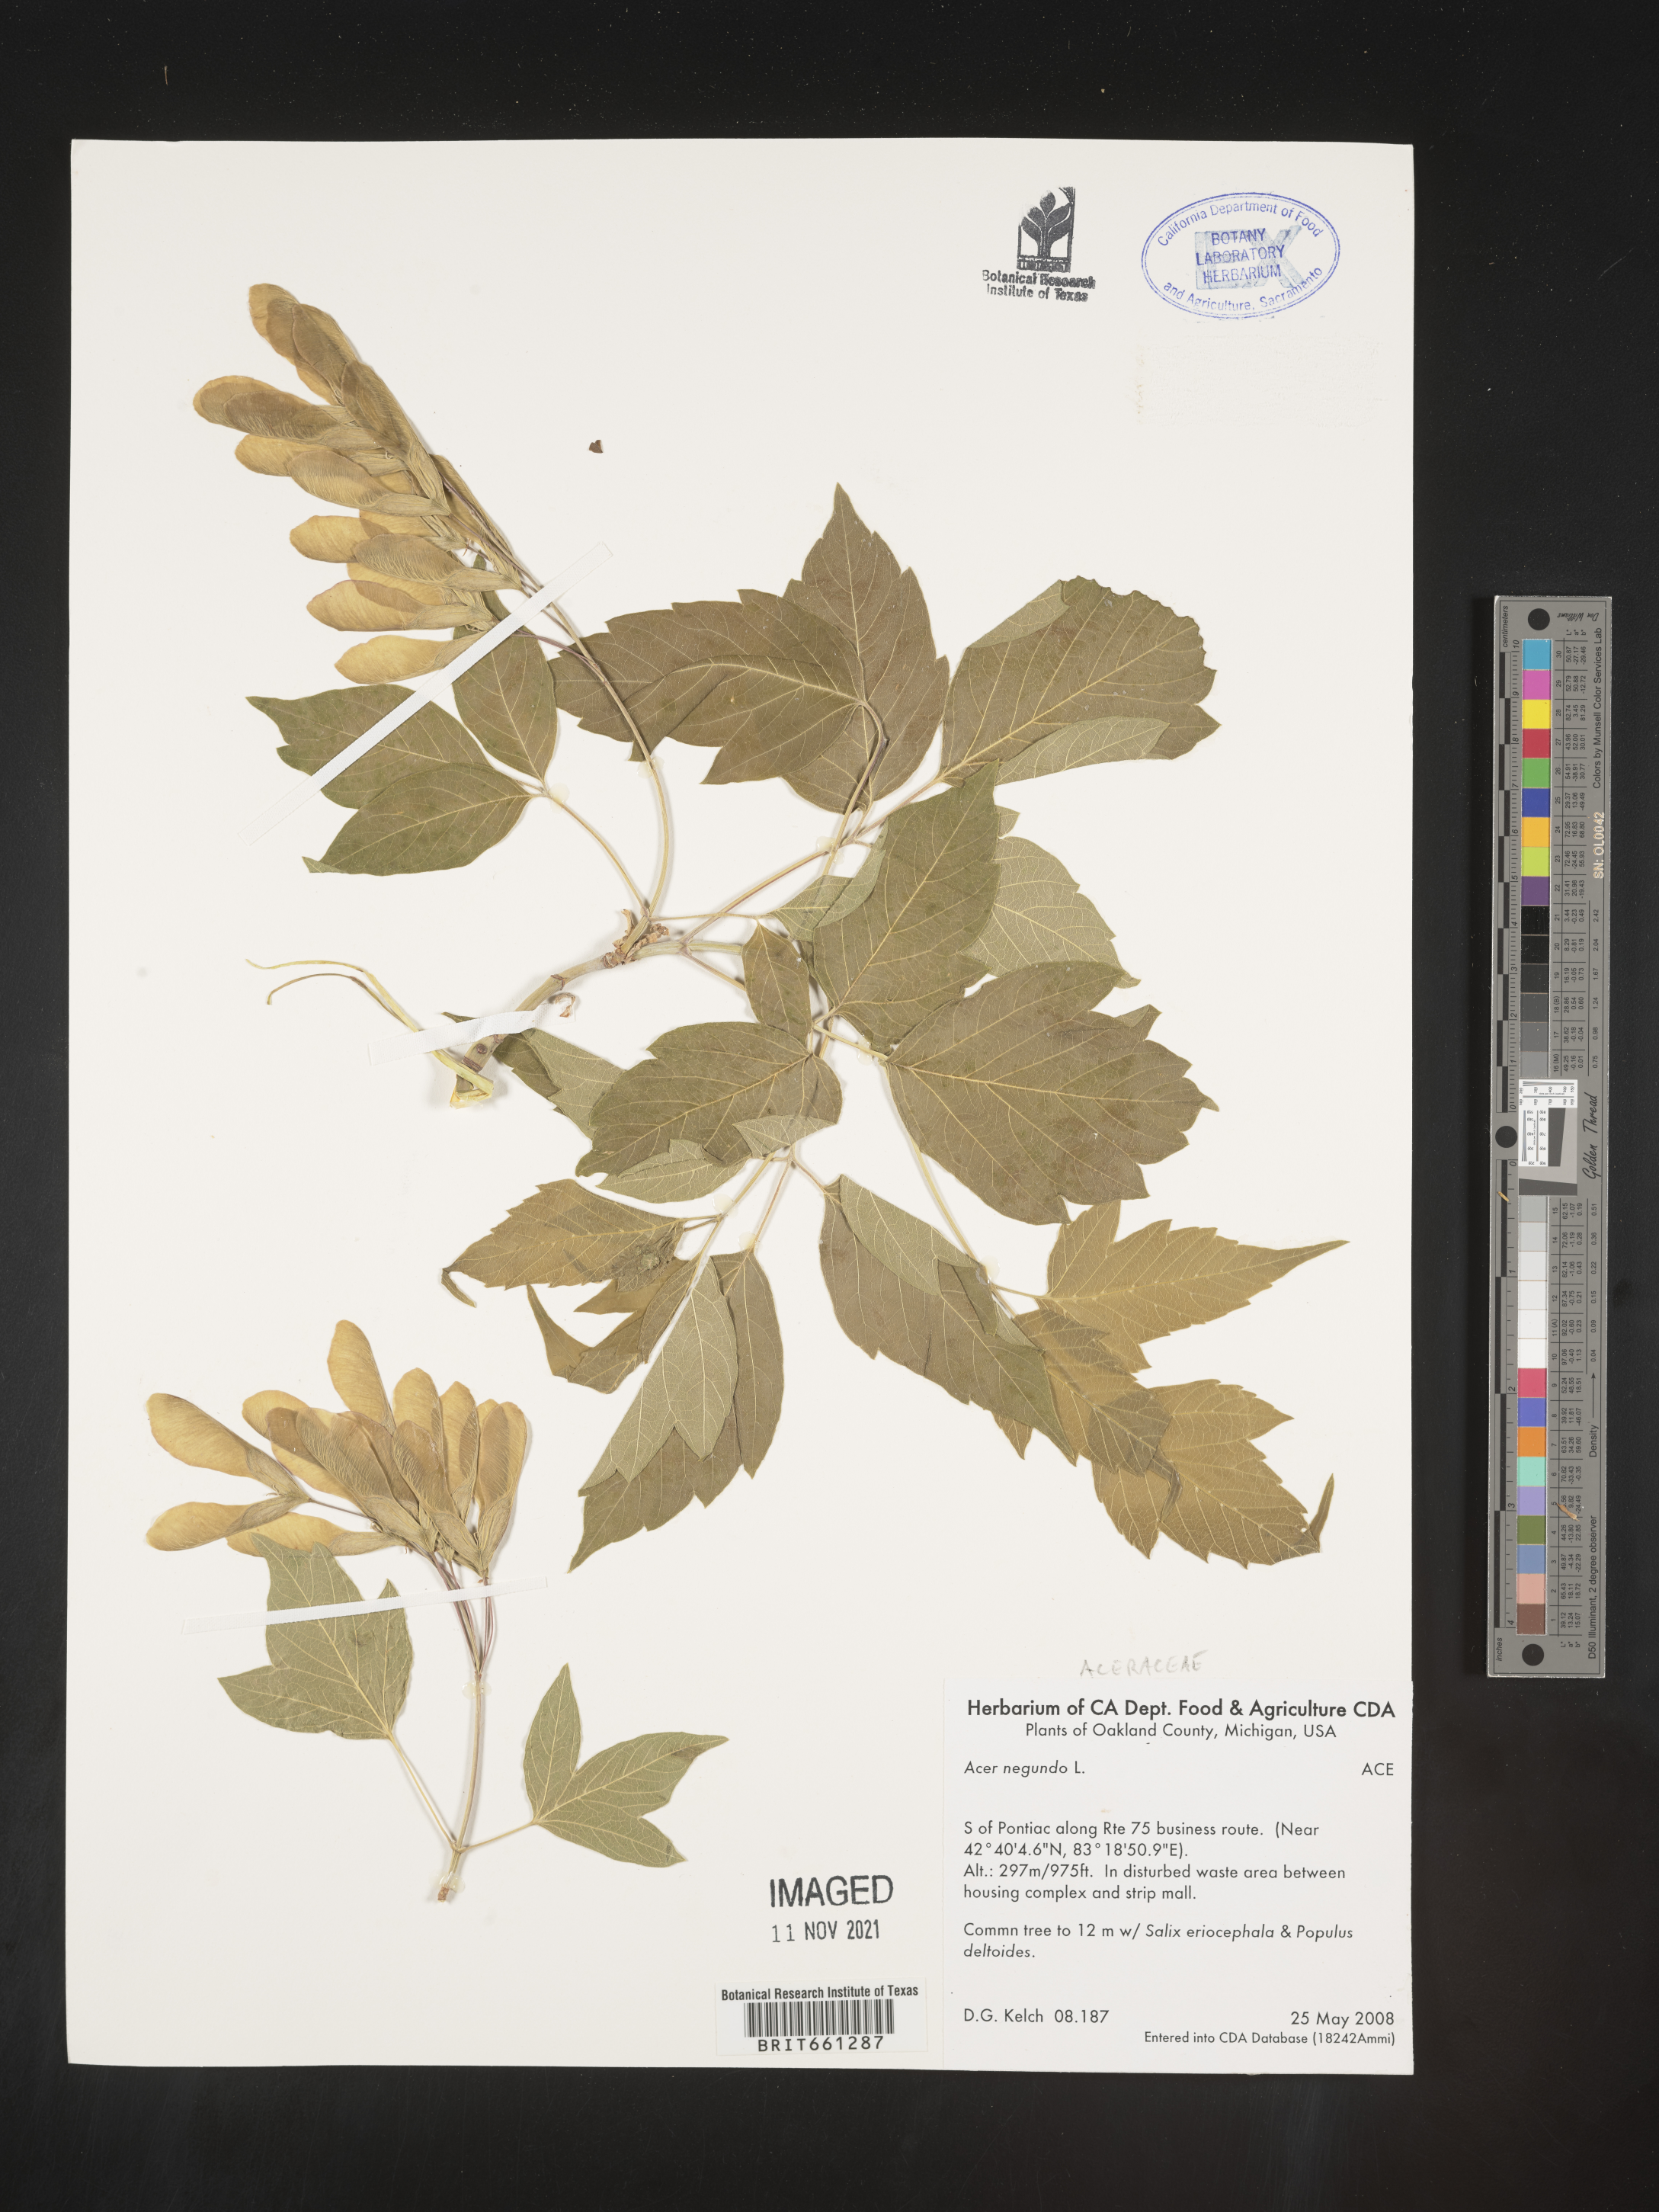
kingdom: Plantae
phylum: Tracheophyta
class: Magnoliopsida
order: Sapindales
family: Sapindaceae
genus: Acer
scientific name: Acer negundo
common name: Ashleaf maple
